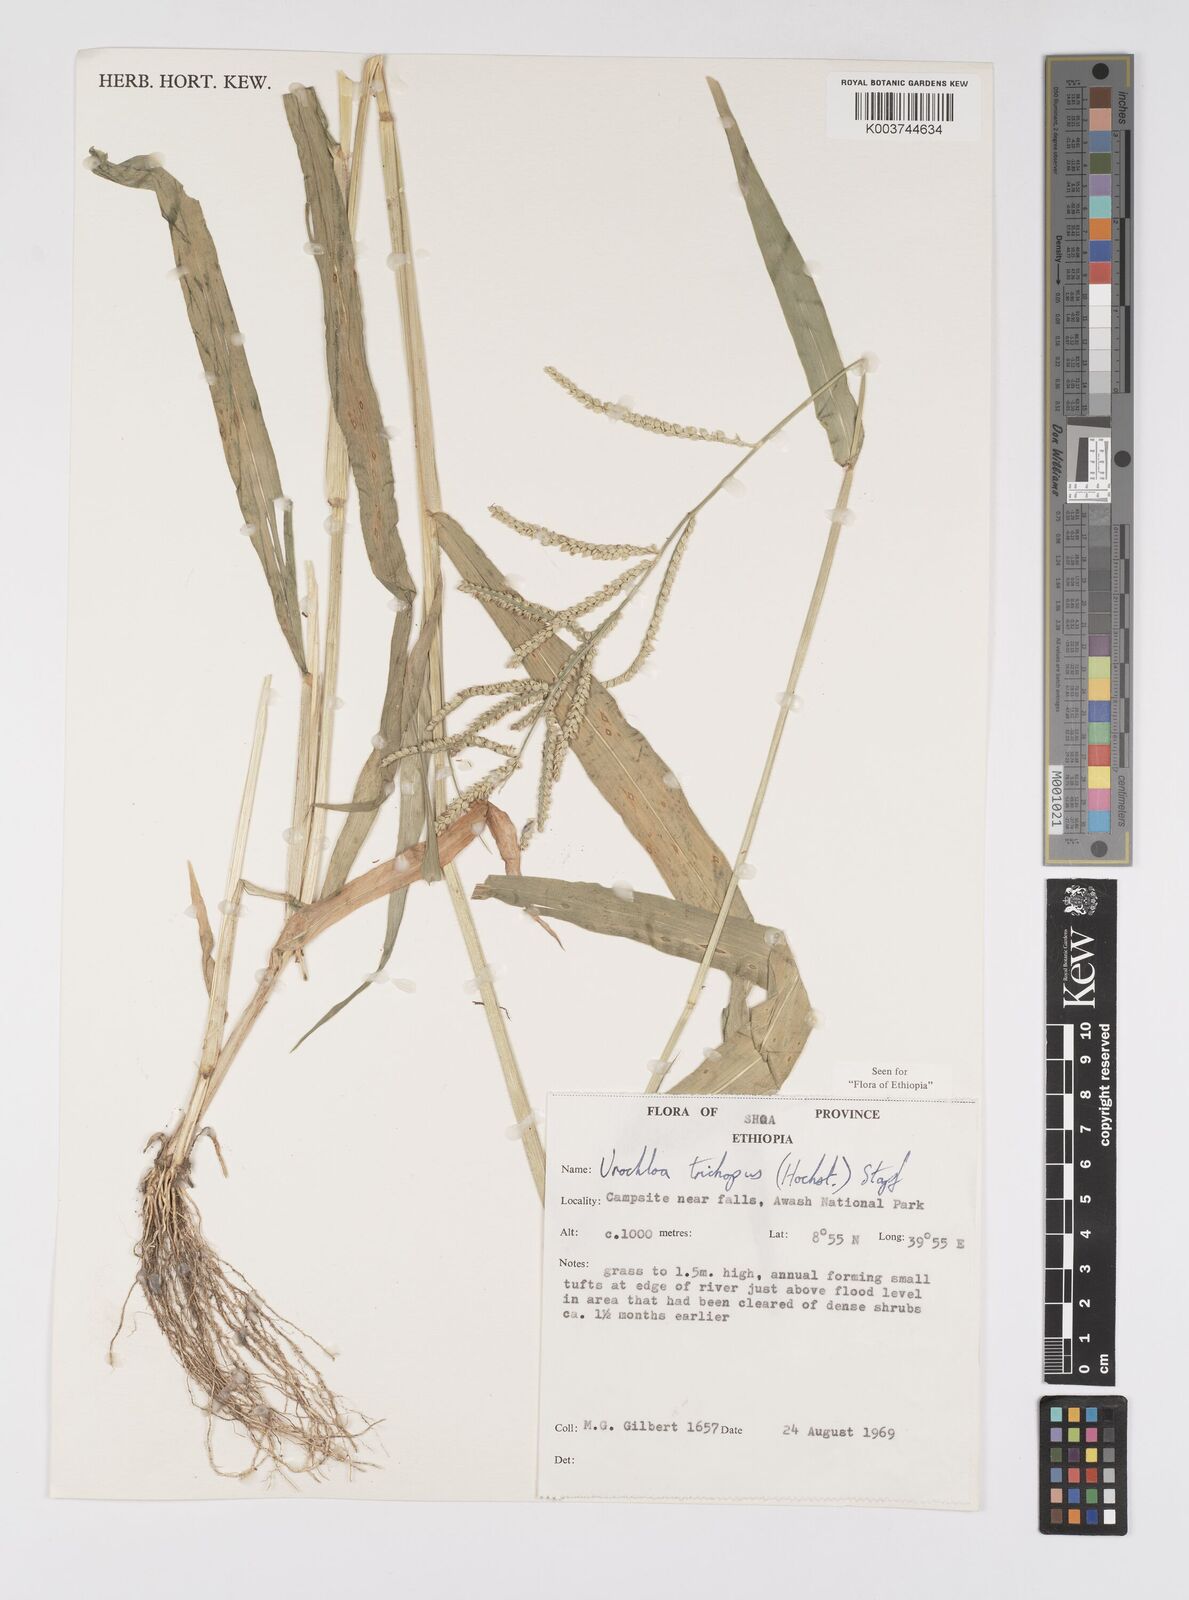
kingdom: Plantae
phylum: Tracheophyta
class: Liliopsida
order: Poales
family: Poaceae
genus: Urochloa
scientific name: Urochloa trichopus
